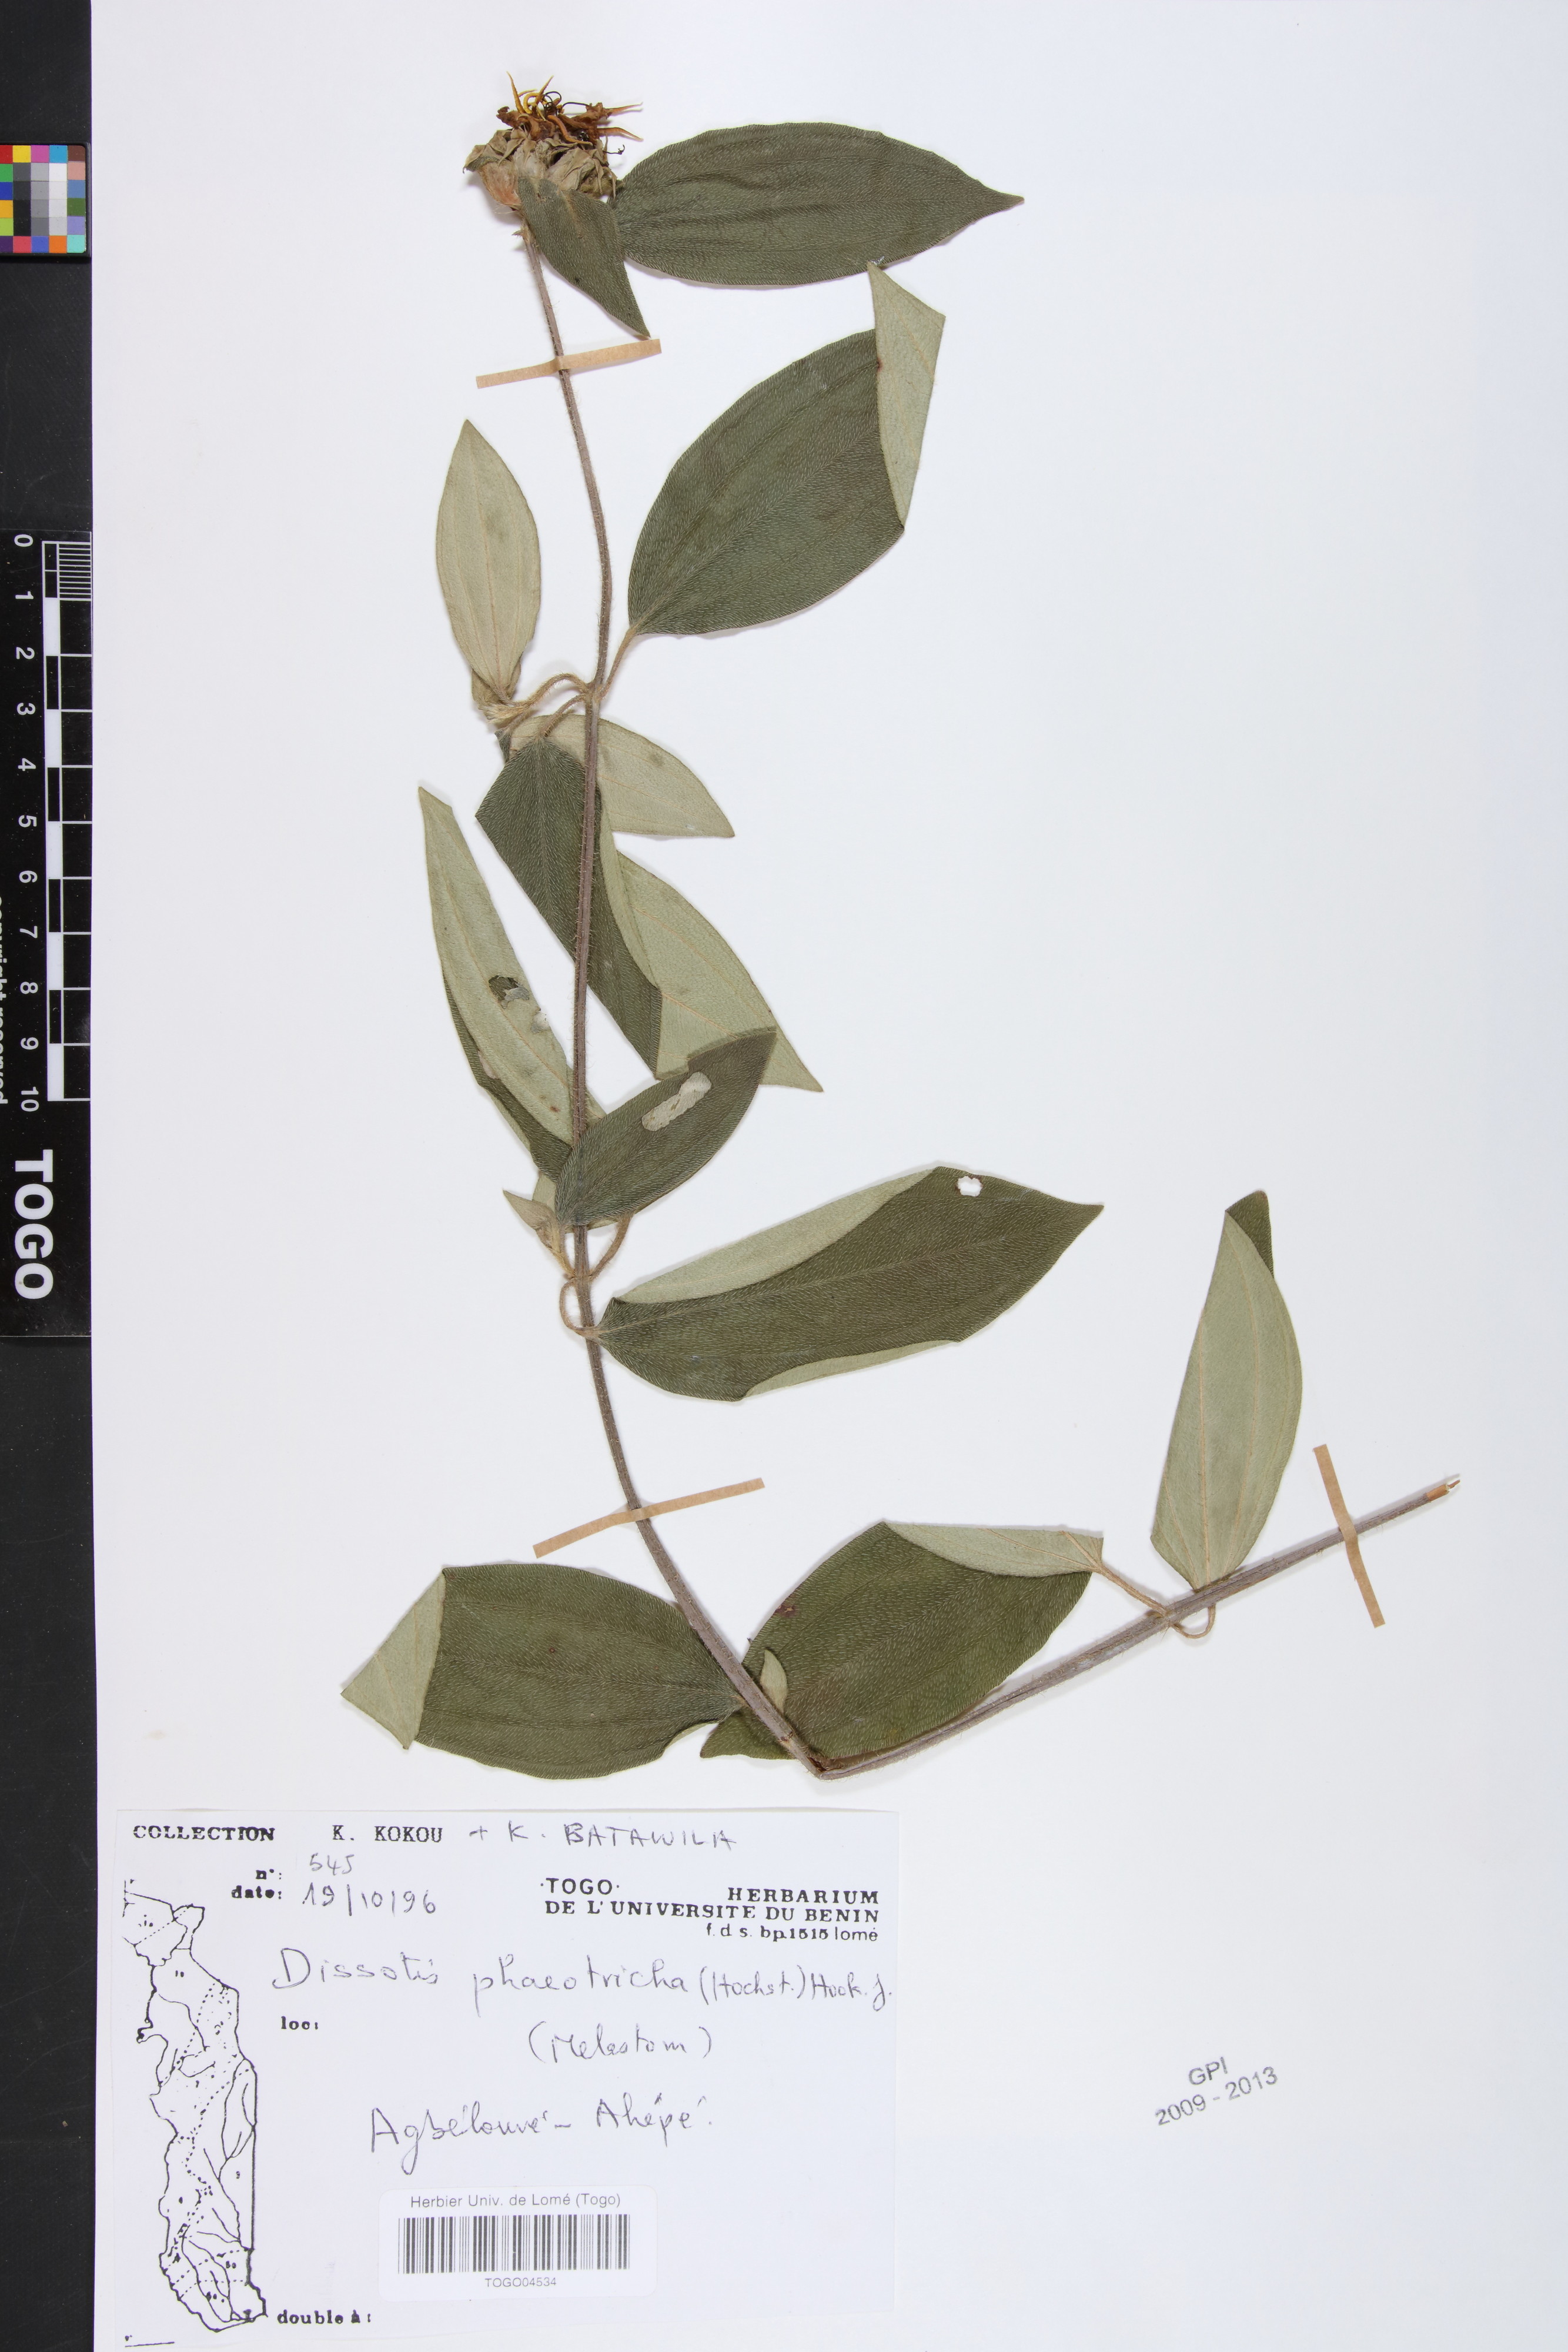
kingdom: Plantae
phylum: Tracheophyta
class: Magnoliopsida
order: Myrtales
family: Melastomataceae
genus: Antherotoma
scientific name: Antherotoma phaeotricha
